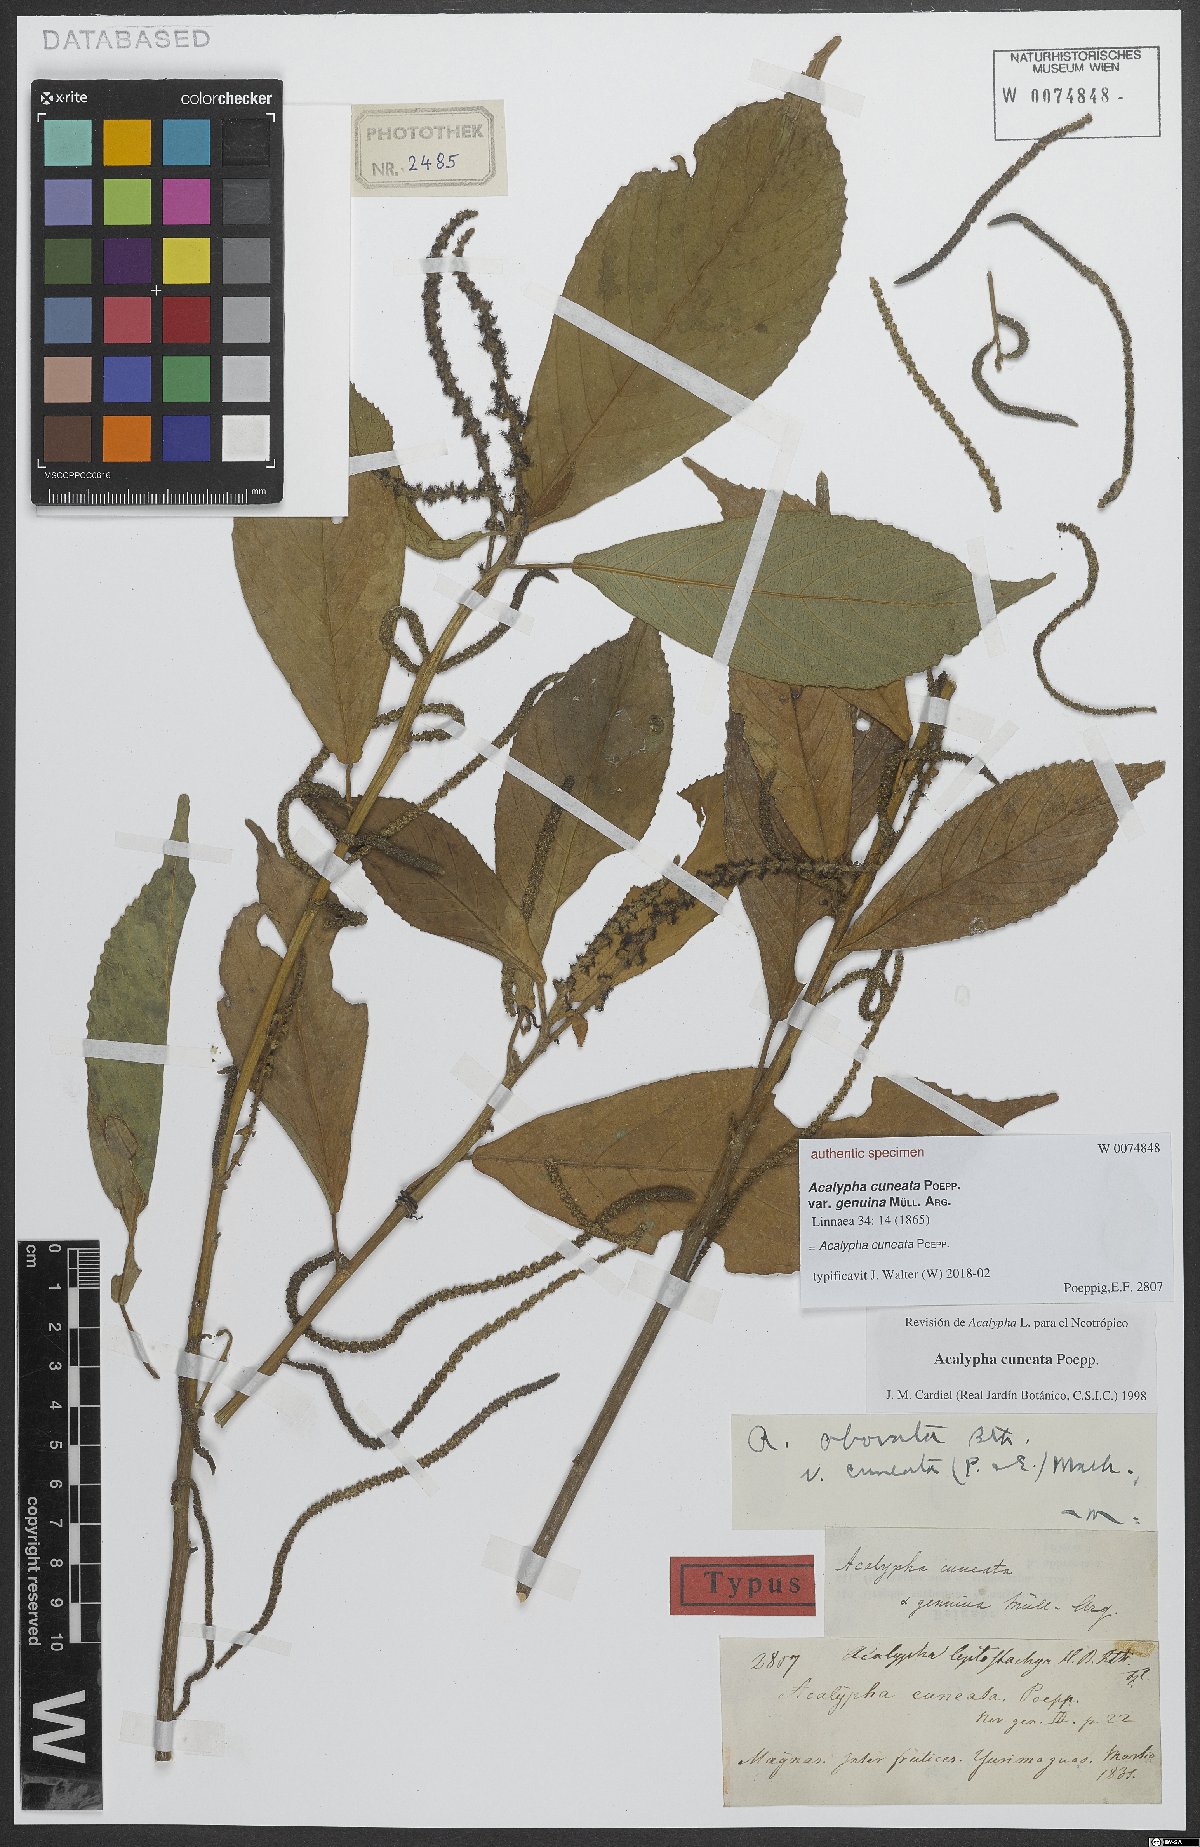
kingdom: Plantae
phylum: Tracheophyta
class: Magnoliopsida
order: Malpighiales
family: Euphorbiaceae
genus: Acalypha
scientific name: Acalypha cuneata
